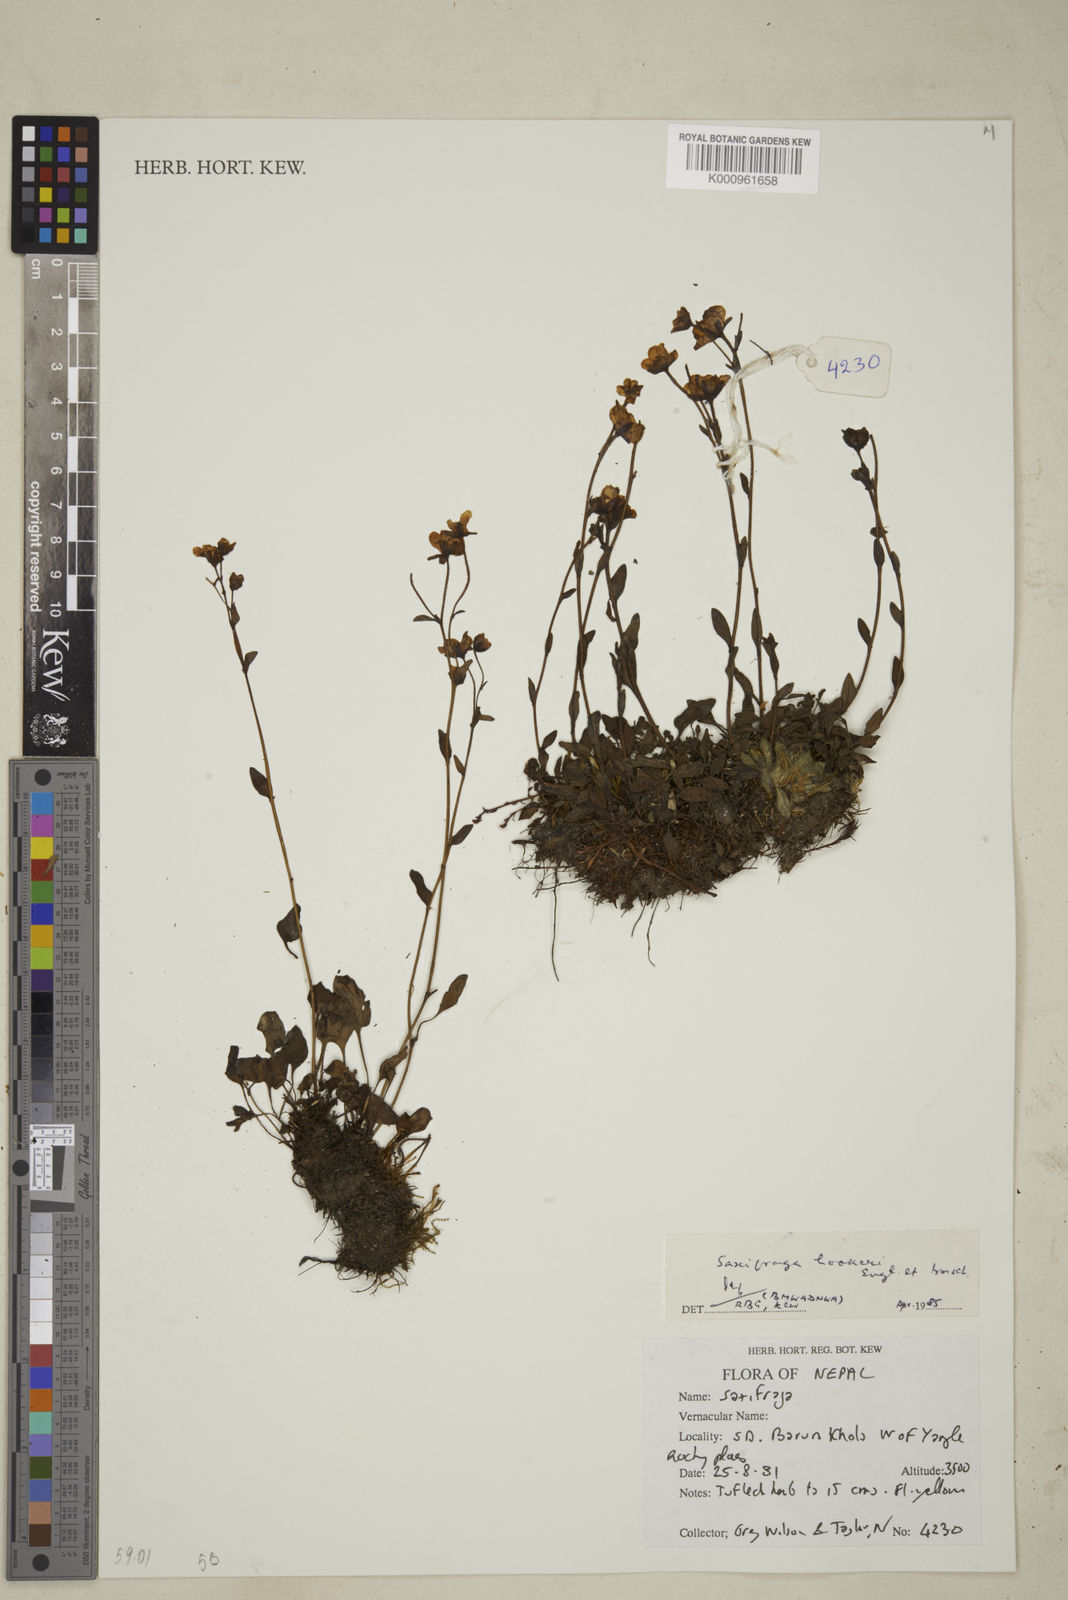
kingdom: Plantae
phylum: Tracheophyta
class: Magnoliopsida
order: Saxifragales
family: Saxifragaceae
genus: Saxifraga
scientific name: Saxifraga hookeri
